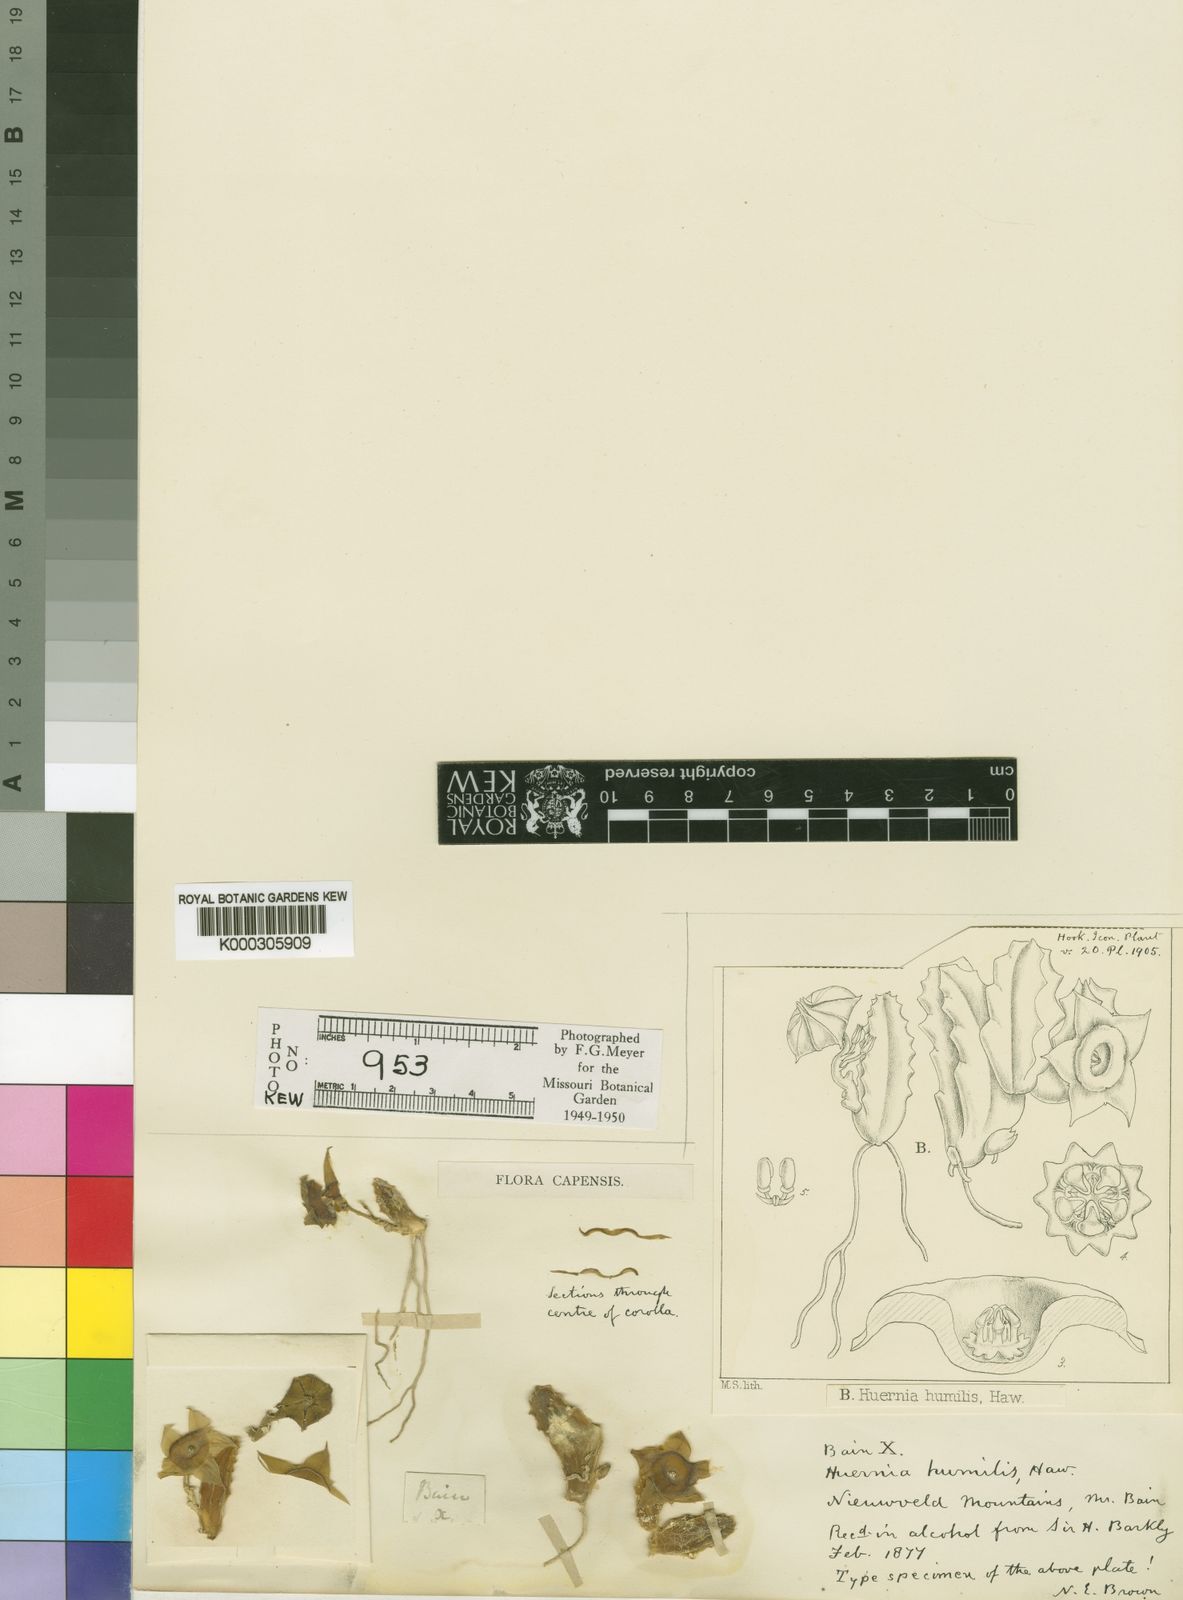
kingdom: Plantae
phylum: Tracheophyta
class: Magnoliopsida
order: Gentianales
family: Apocynaceae
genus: Ceropegia
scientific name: Ceropegia humilior
